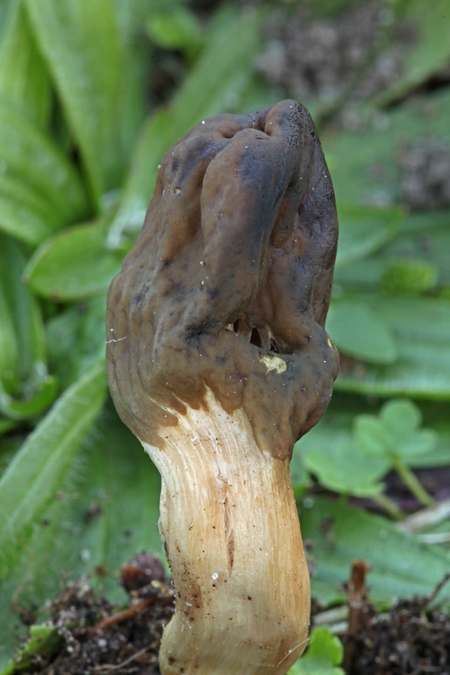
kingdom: Fungi
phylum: Ascomycota
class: Geoglossomycetes
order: Geoglossales
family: Geoglossaceae
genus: Geoglossum
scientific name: Geoglossum atropurpureum
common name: purpursort farvetunge
